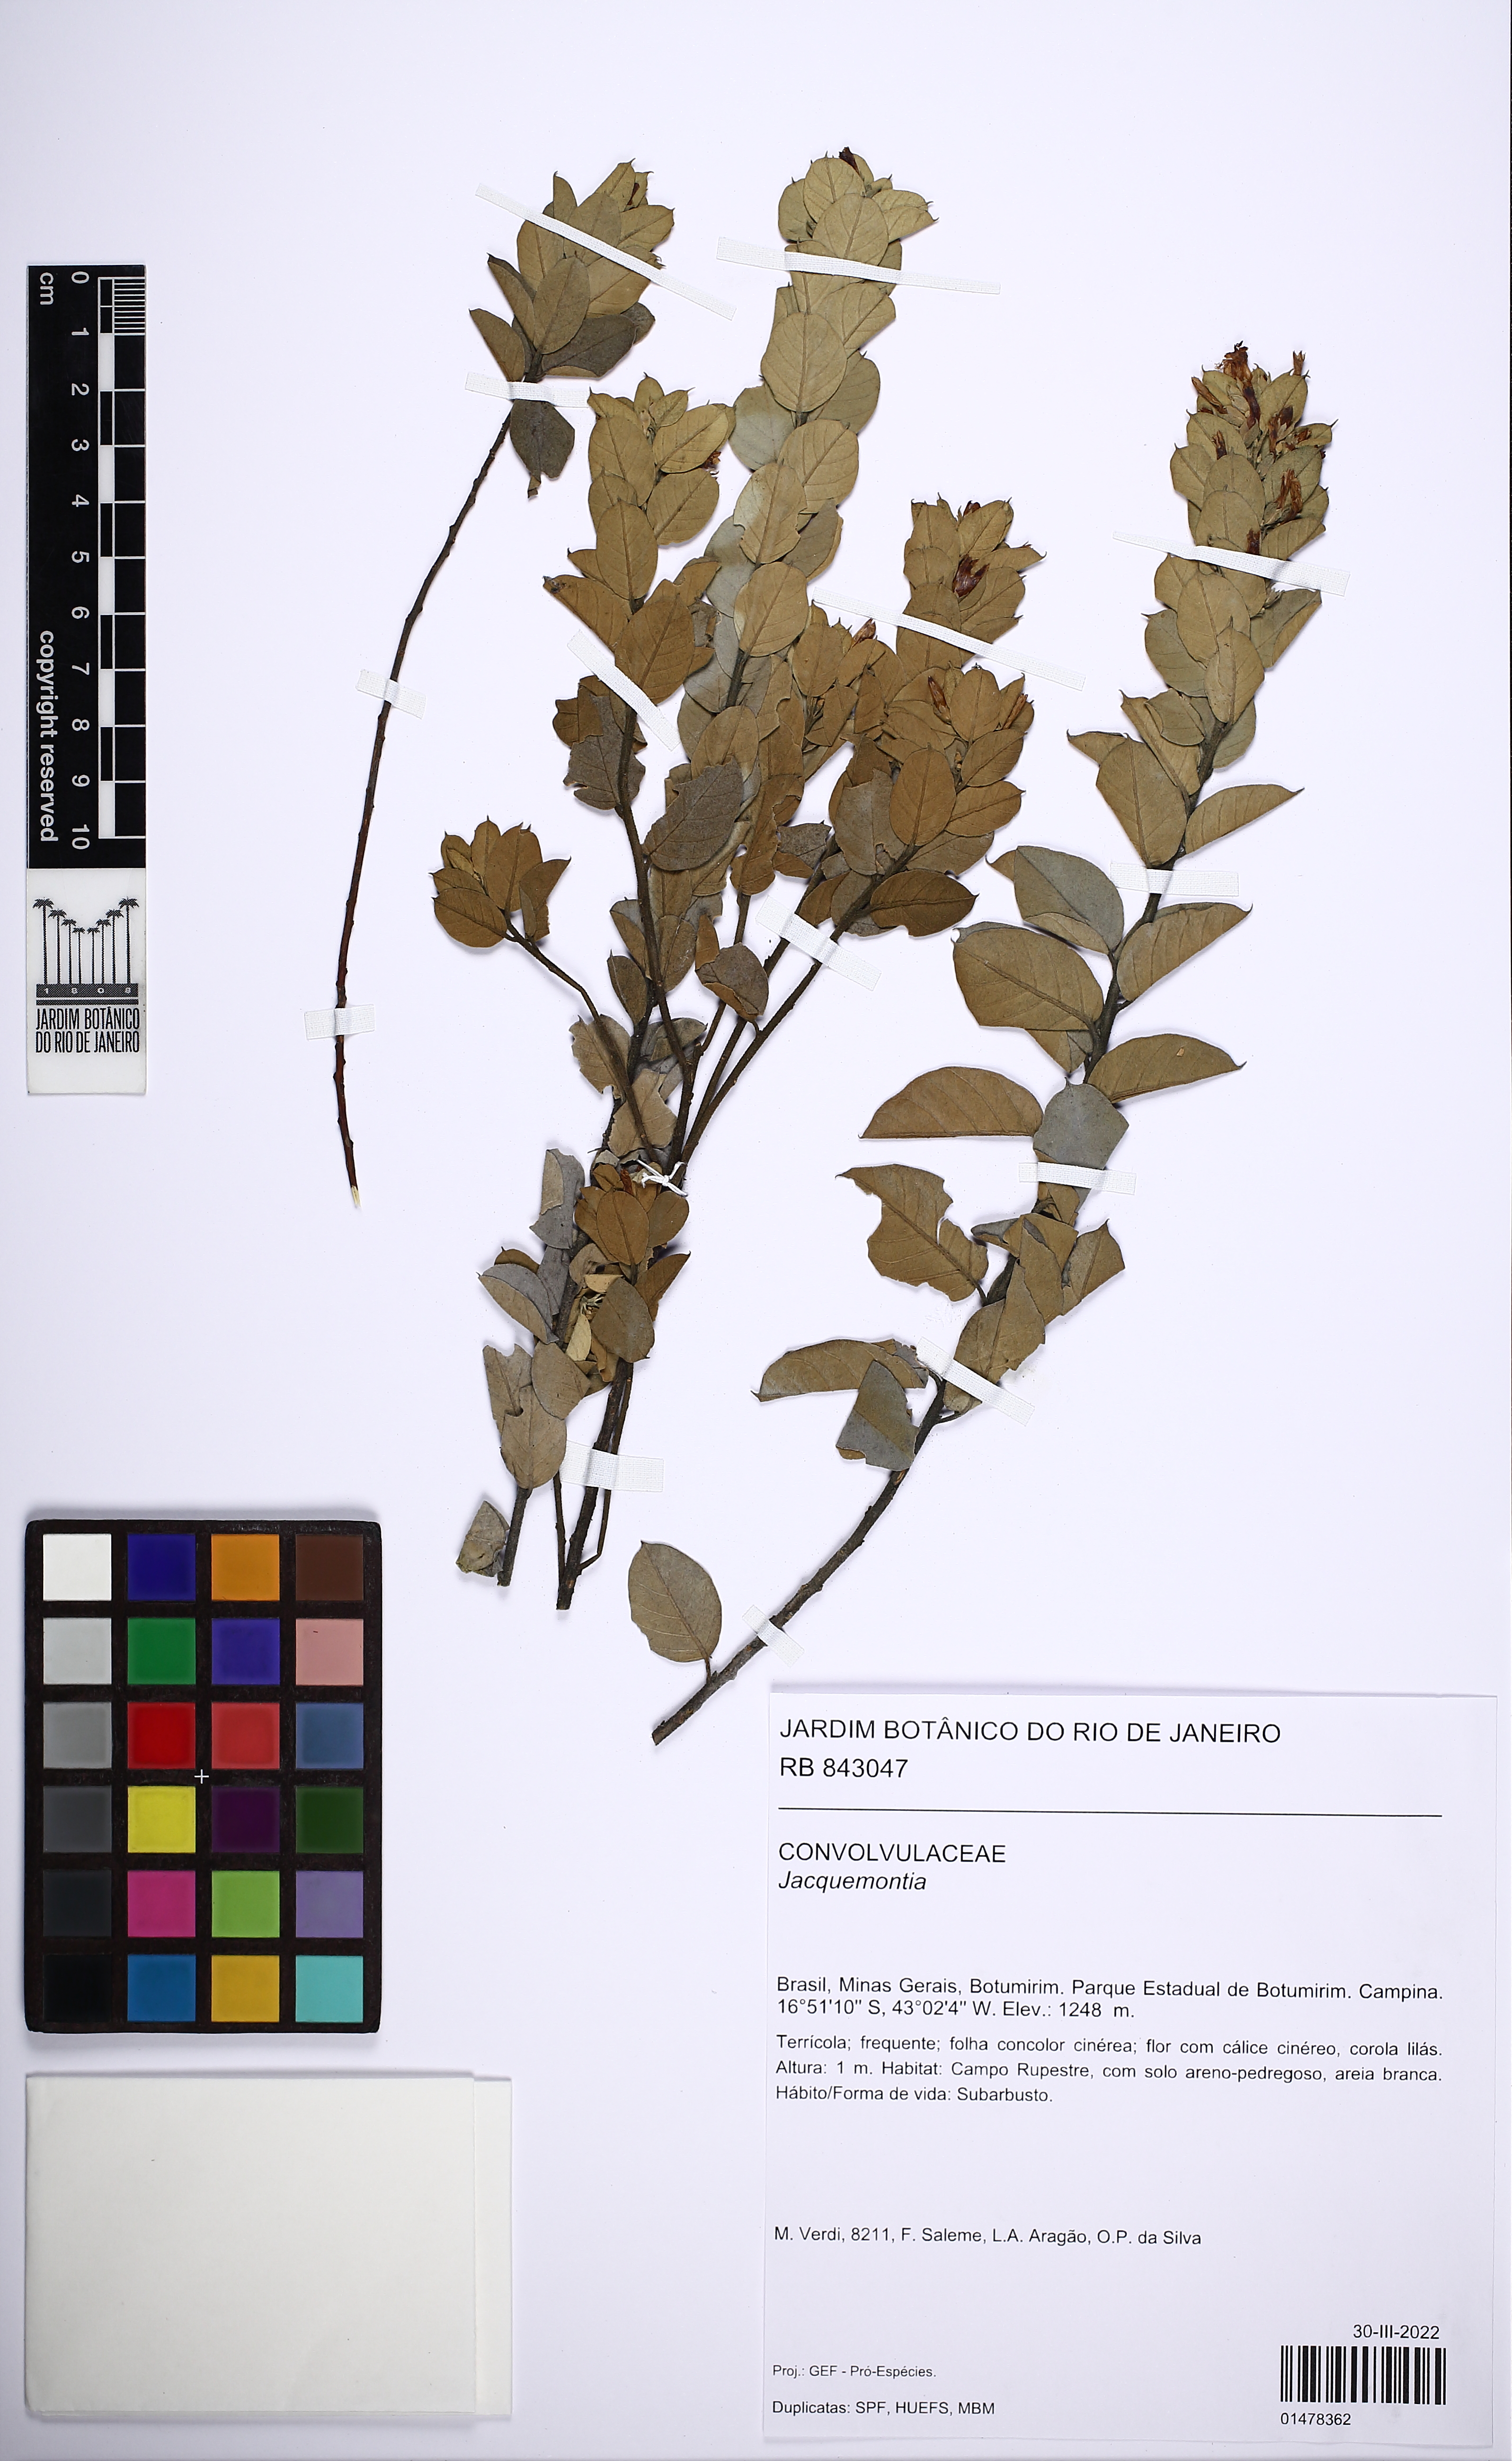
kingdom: Plantae
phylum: Tracheophyta
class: Magnoliopsida
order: Asterales
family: Asteraceae
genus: Pterocaulon
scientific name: Pterocaulon virgatum
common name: Wand blackroot
